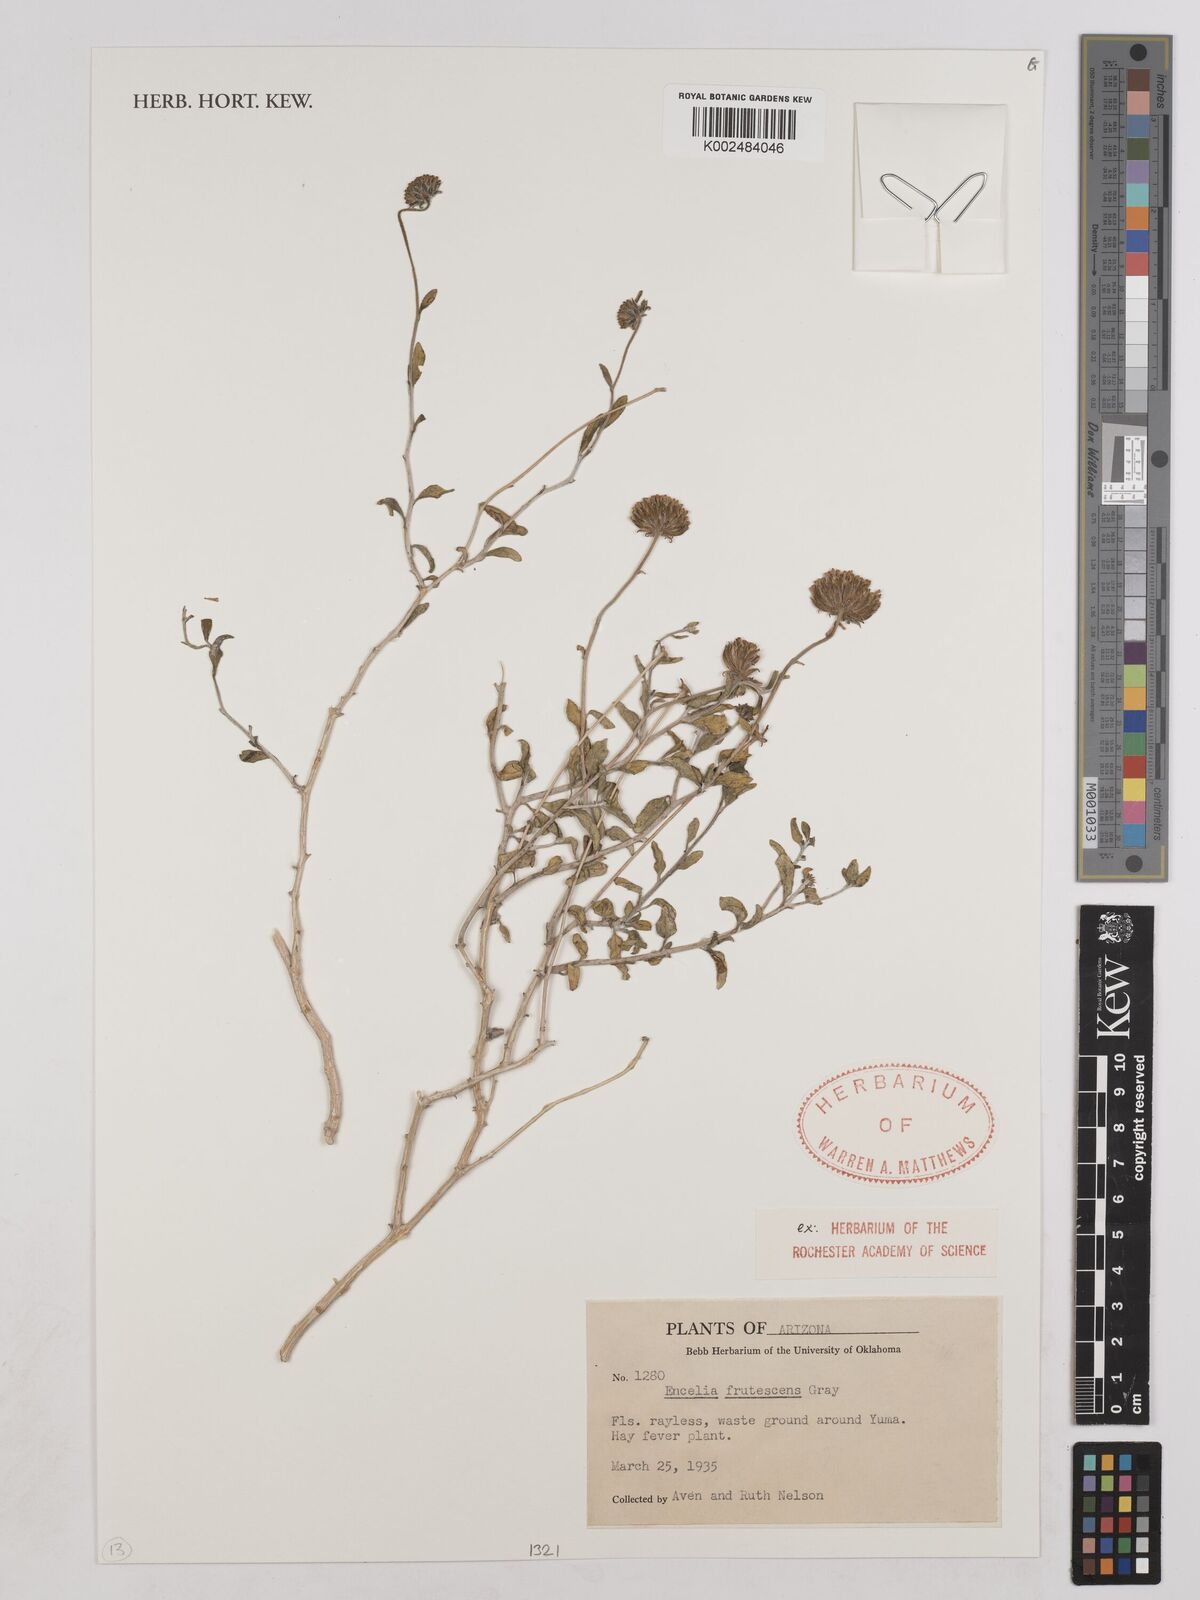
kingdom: Plantae
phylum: Tracheophyta
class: Magnoliopsida
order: Asterales
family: Asteraceae
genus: Encelia
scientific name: Encelia frutescens
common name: Bush encelia
